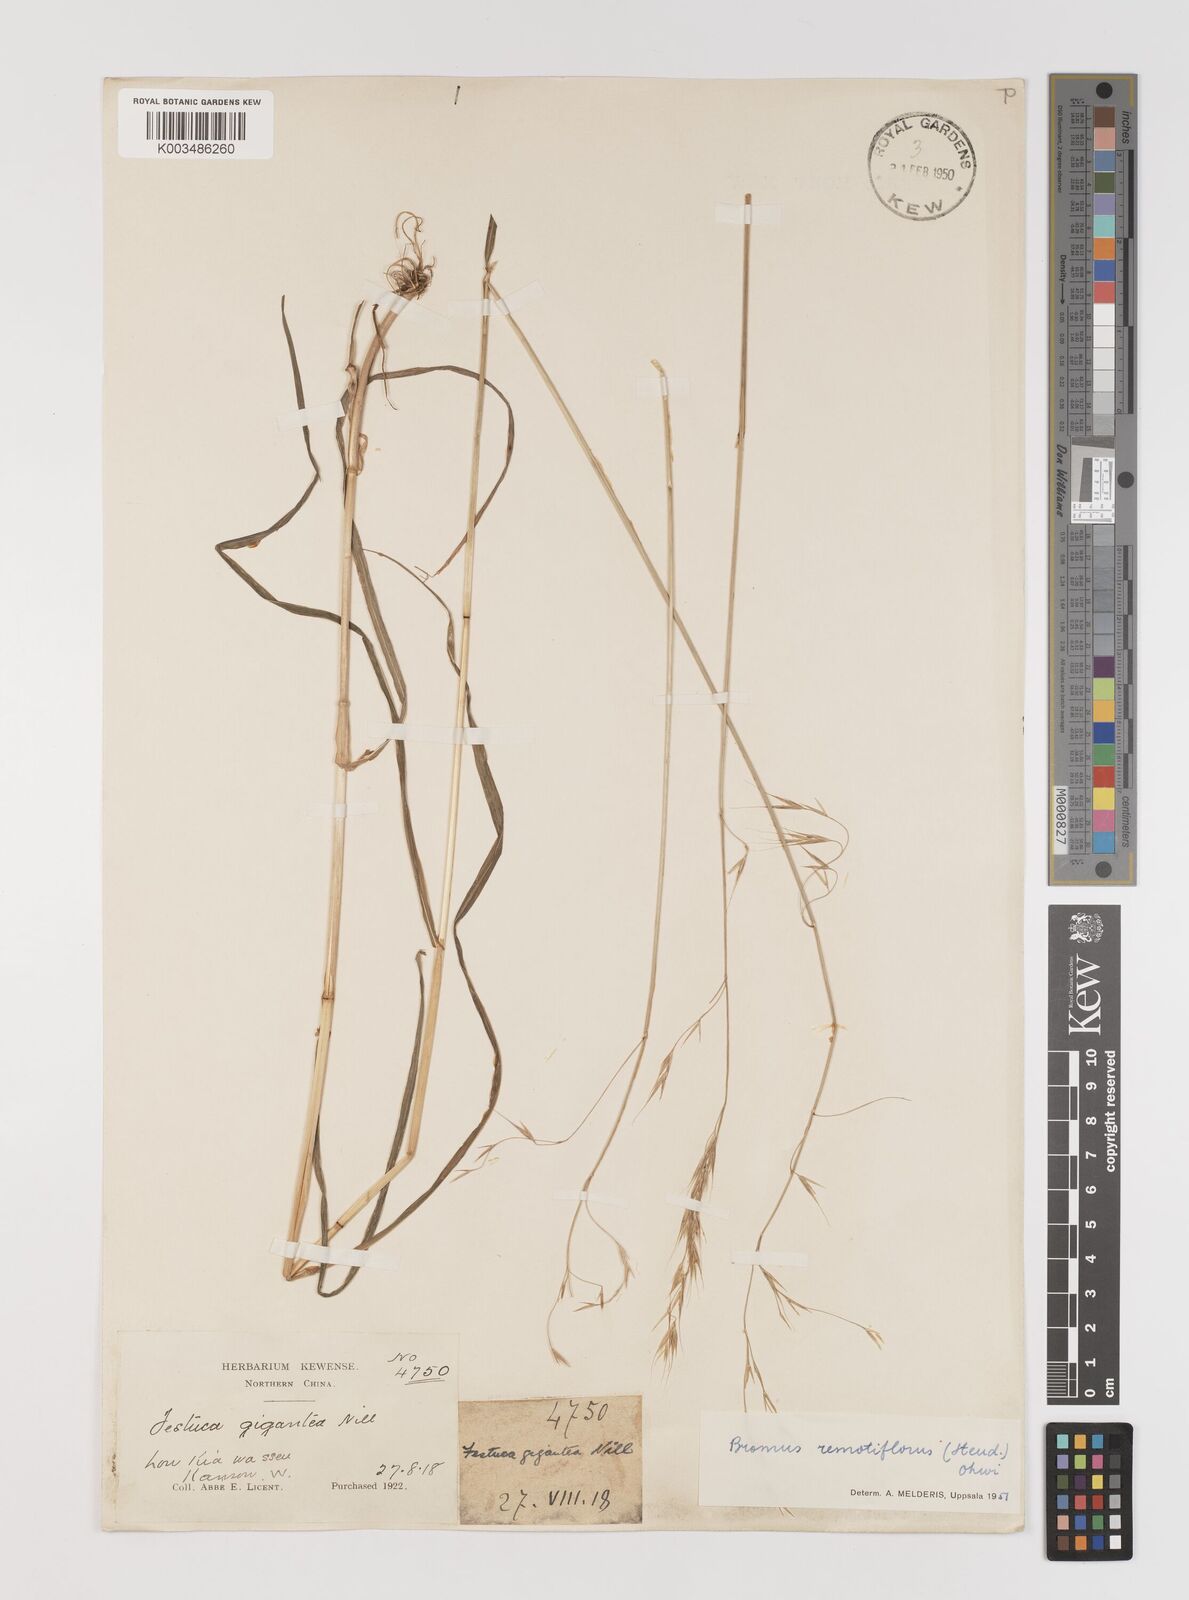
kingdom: Plantae
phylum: Tracheophyta
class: Liliopsida
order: Poales
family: Poaceae
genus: Bromus
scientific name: Bromus remotiflorus
